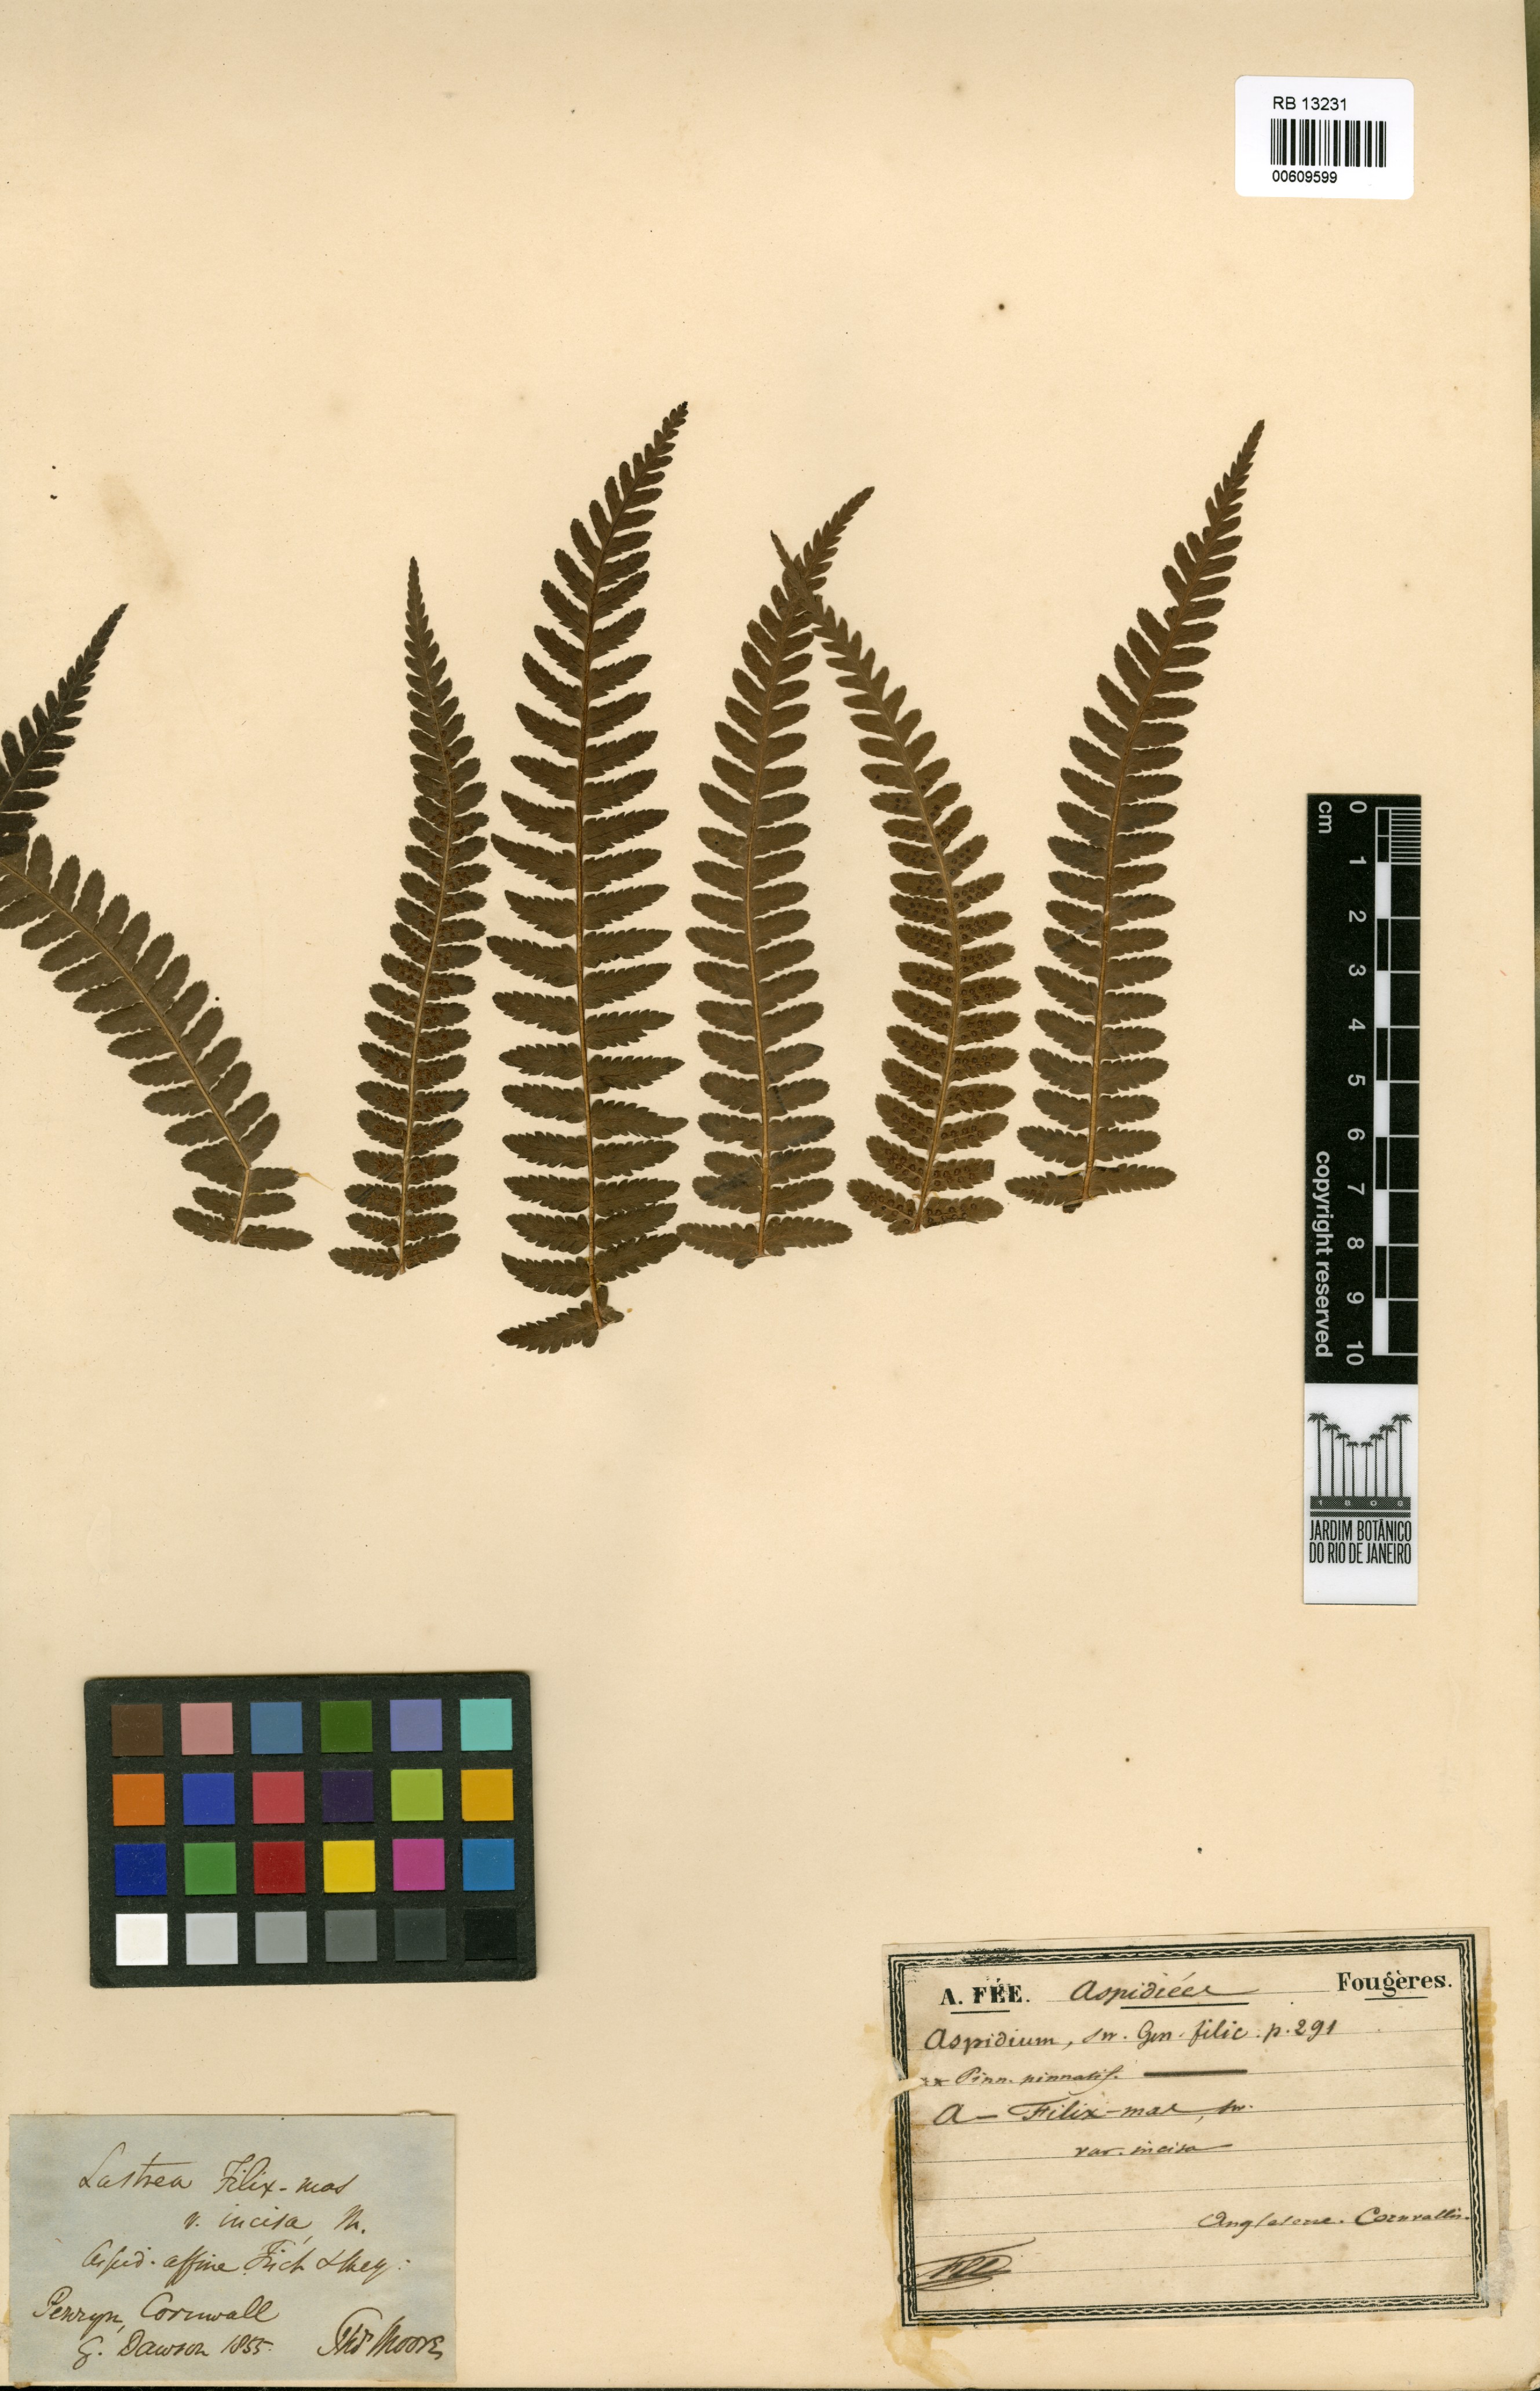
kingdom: Plantae
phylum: Tracheophyta
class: Polypodiopsida
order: Polypodiales
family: Dryopteridaceae
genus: Dryopteris
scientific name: Dryopteris filix-mas
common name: Male fern
